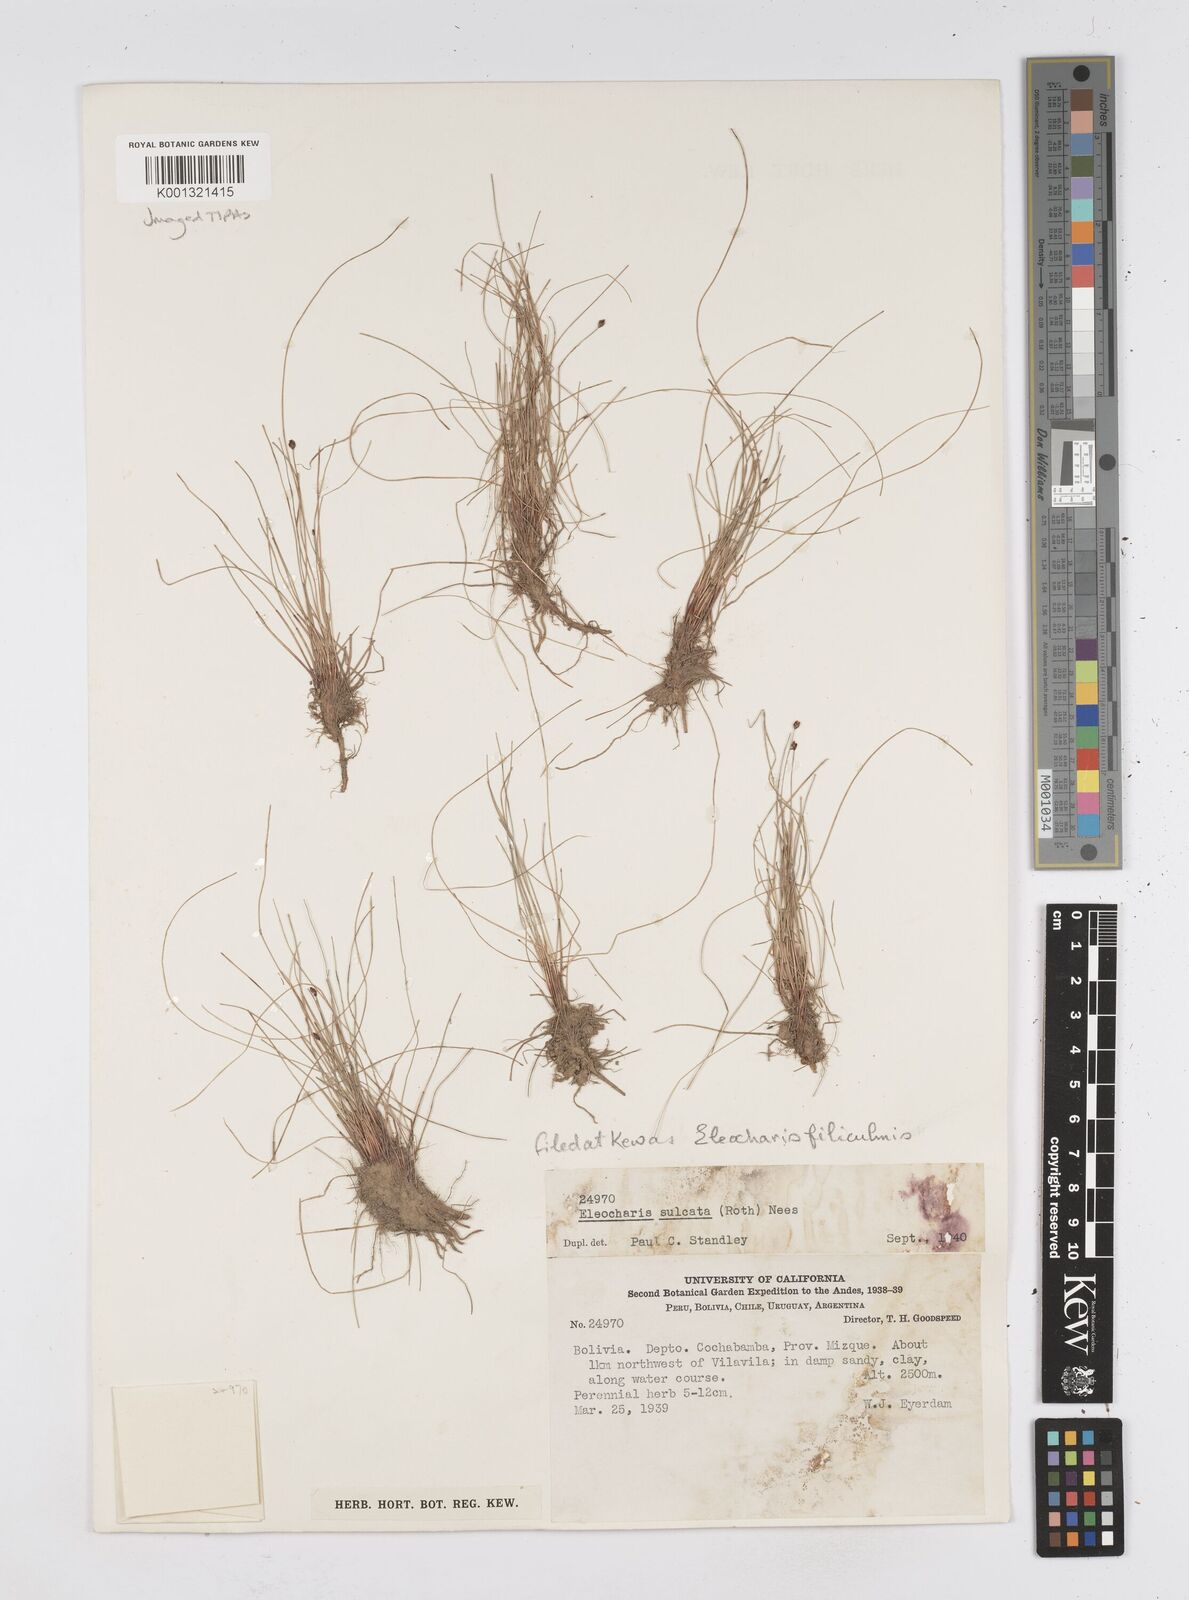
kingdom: Plantae
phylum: Tracheophyta
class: Liliopsida
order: Poales
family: Cyperaceae
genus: Eleocharis
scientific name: Eleocharis filiculmis
